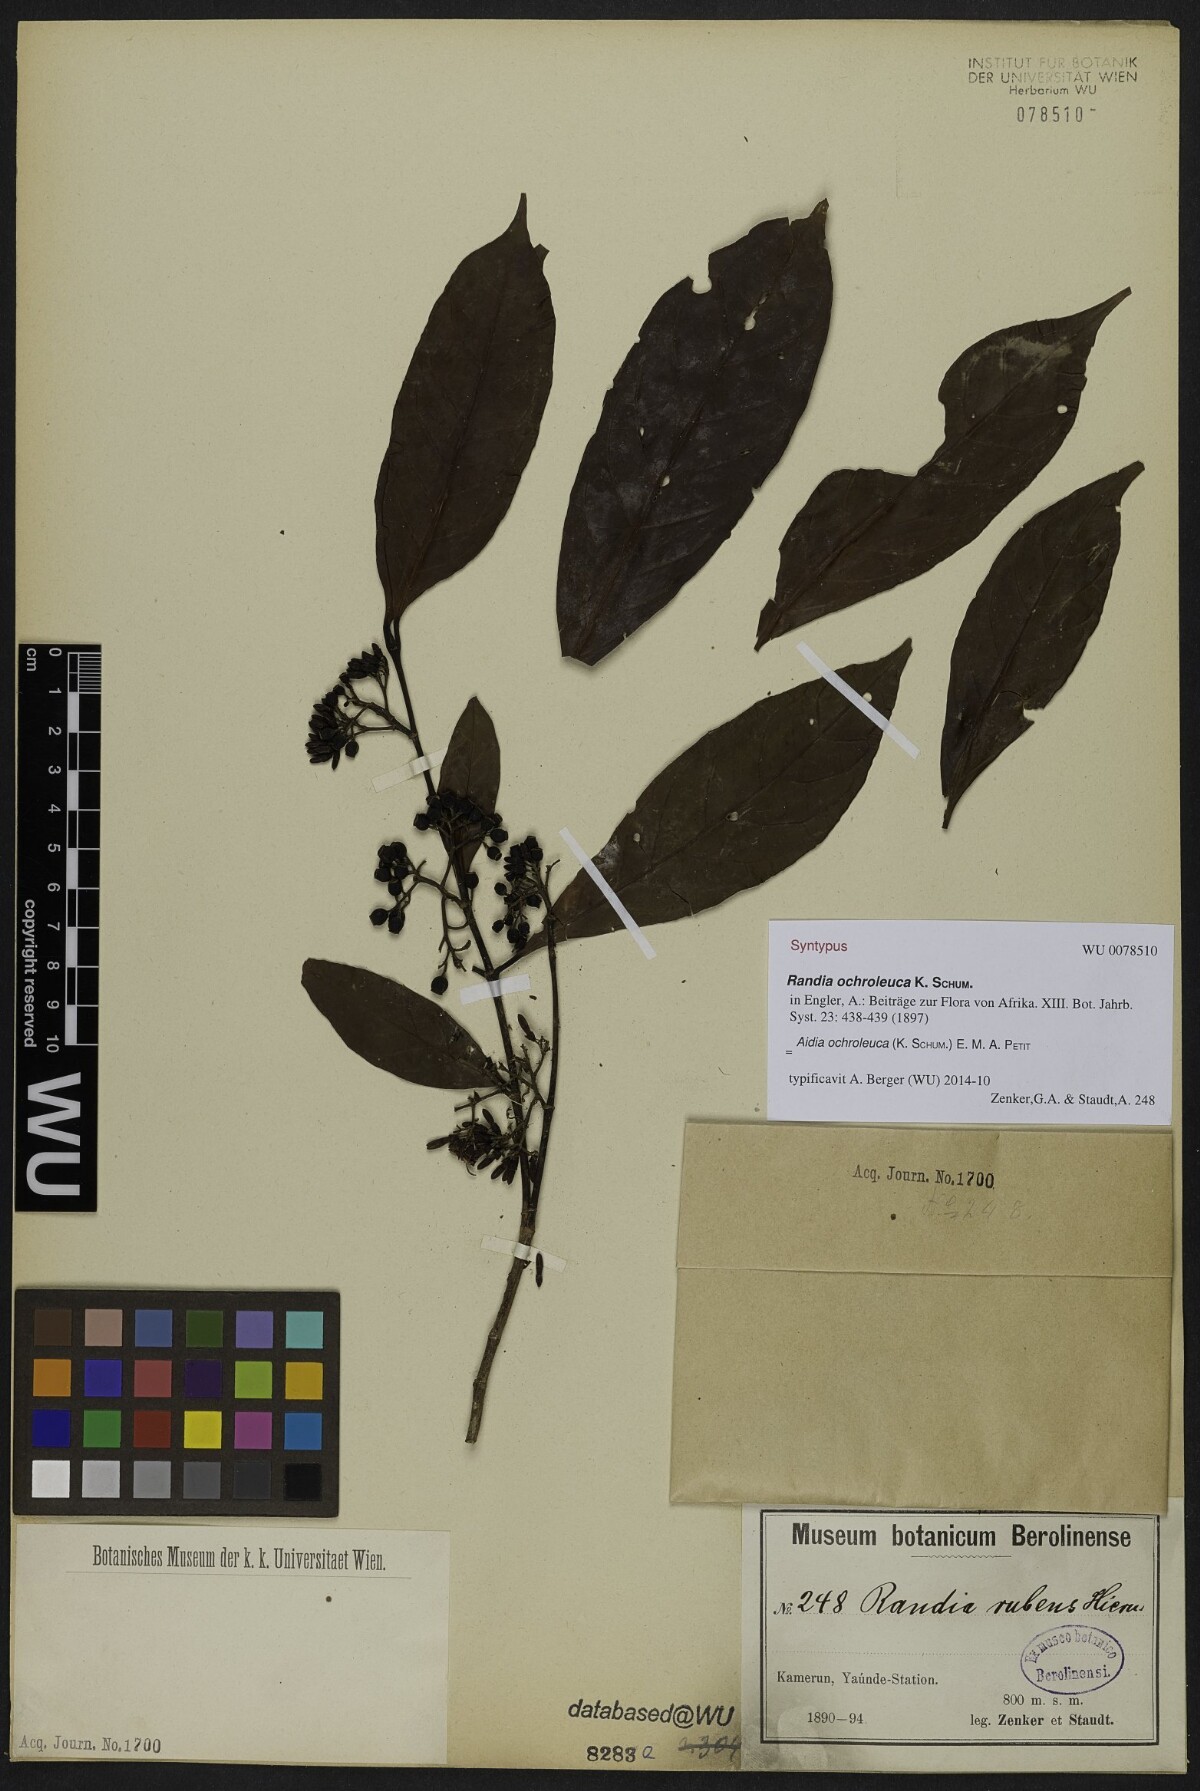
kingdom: Plantae
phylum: Tracheophyta
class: Magnoliopsida
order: Gentianales
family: Rubiaceae
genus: Aidia
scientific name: Aidia ochroleuca
